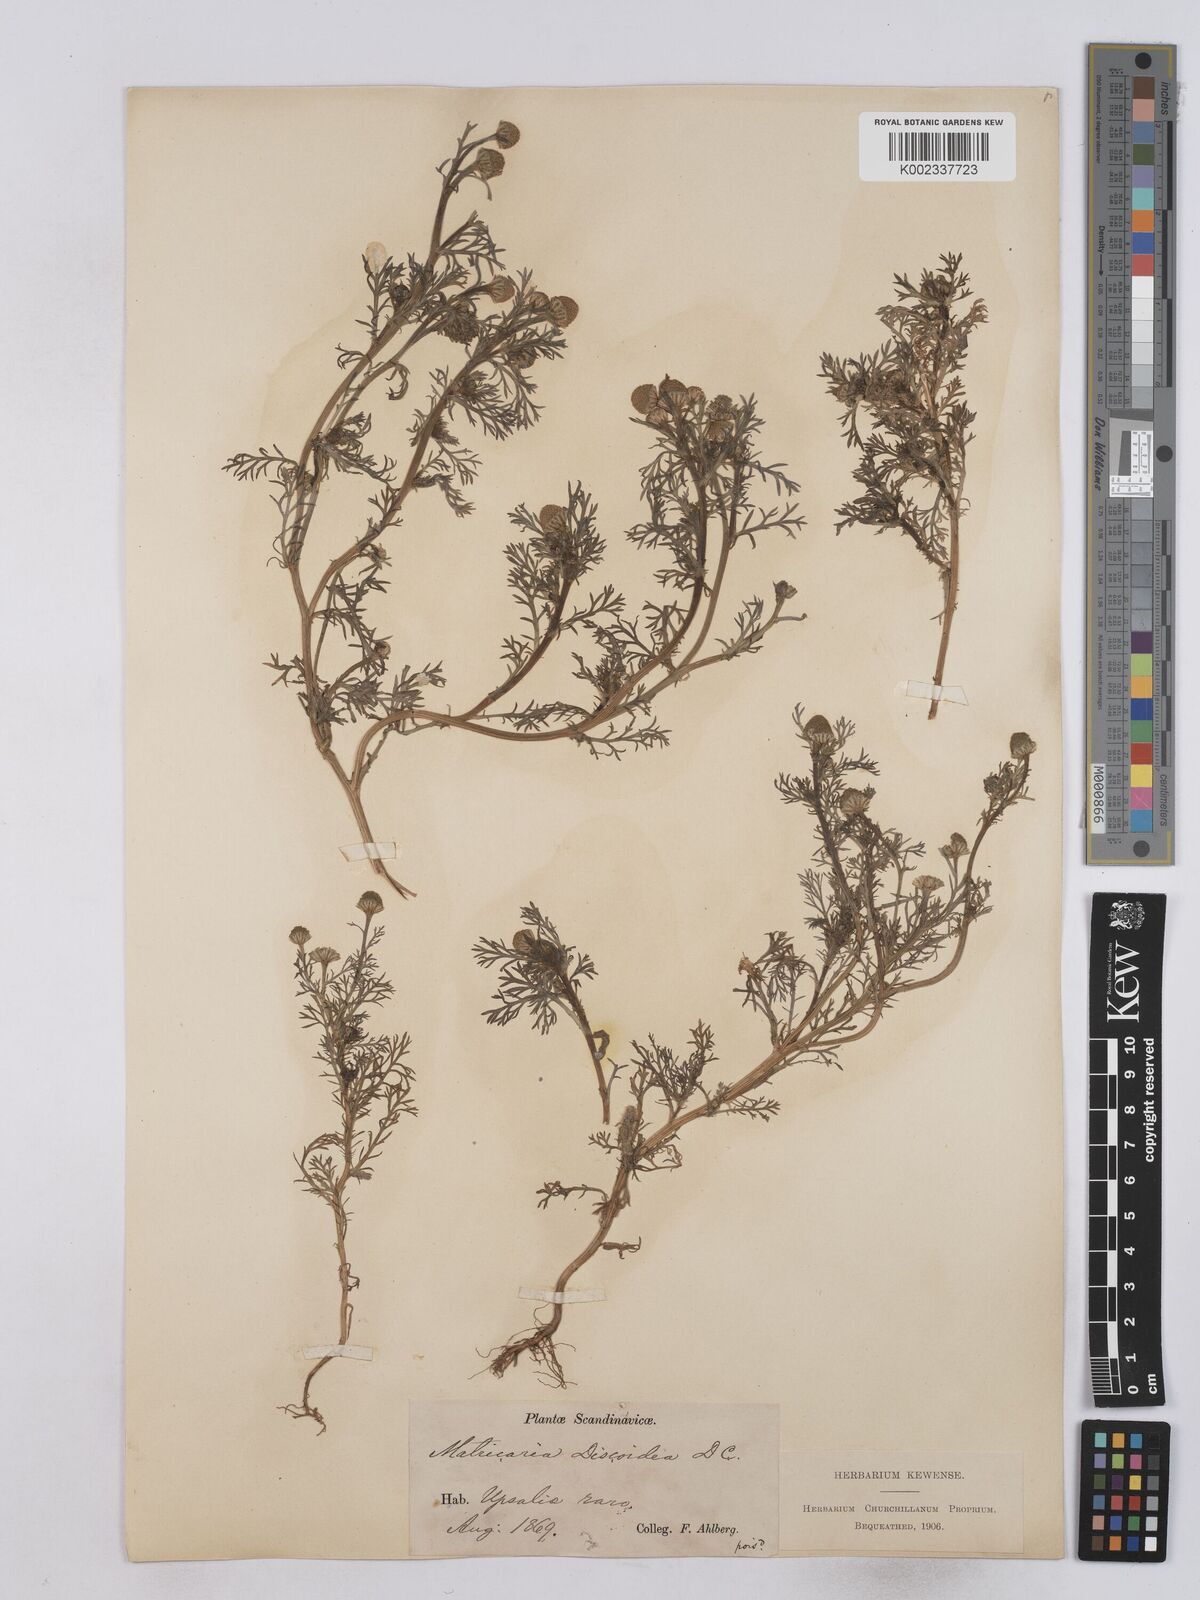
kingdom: Plantae
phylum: Tracheophyta
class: Magnoliopsida
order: Asterales
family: Asteraceae
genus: Matricaria
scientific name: Matricaria discoidea
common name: Disc mayweed
